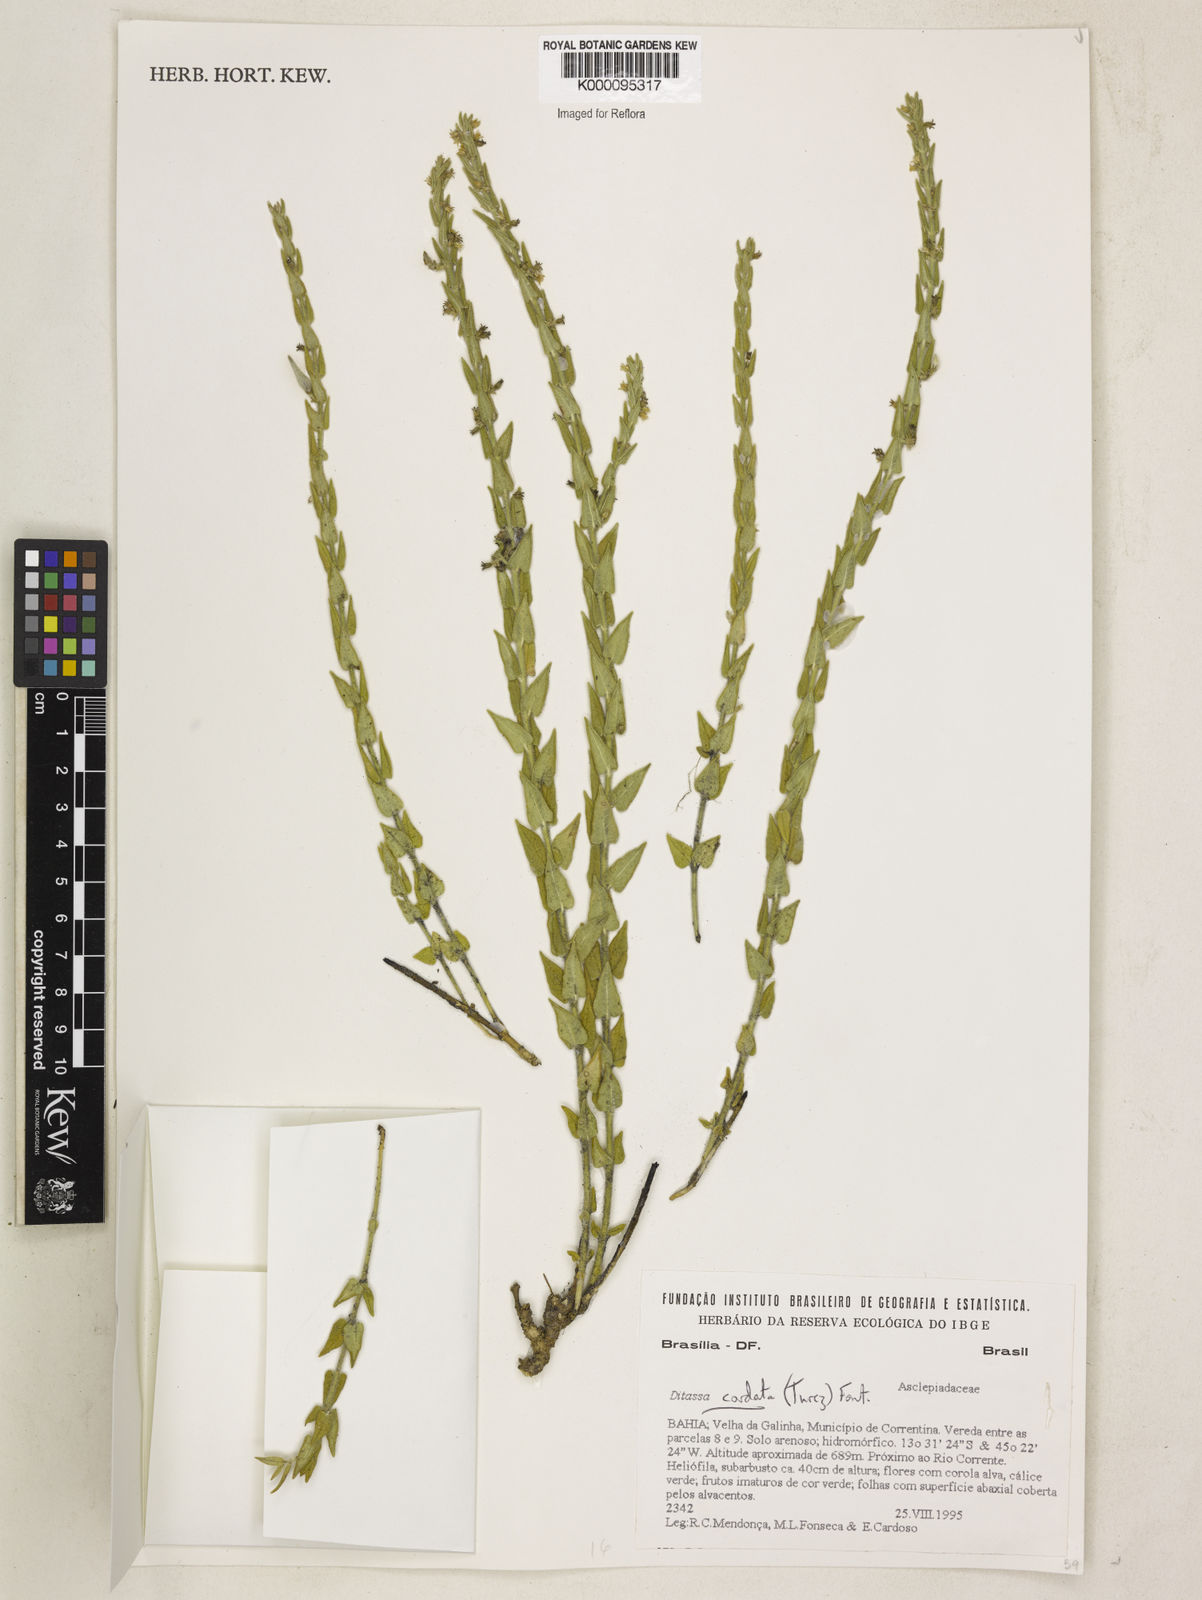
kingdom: Plantae
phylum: Tracheophyta
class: Magnoliopsida
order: Gentianales
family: Apocynaceae
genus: Minaria
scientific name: Minaria cordata
